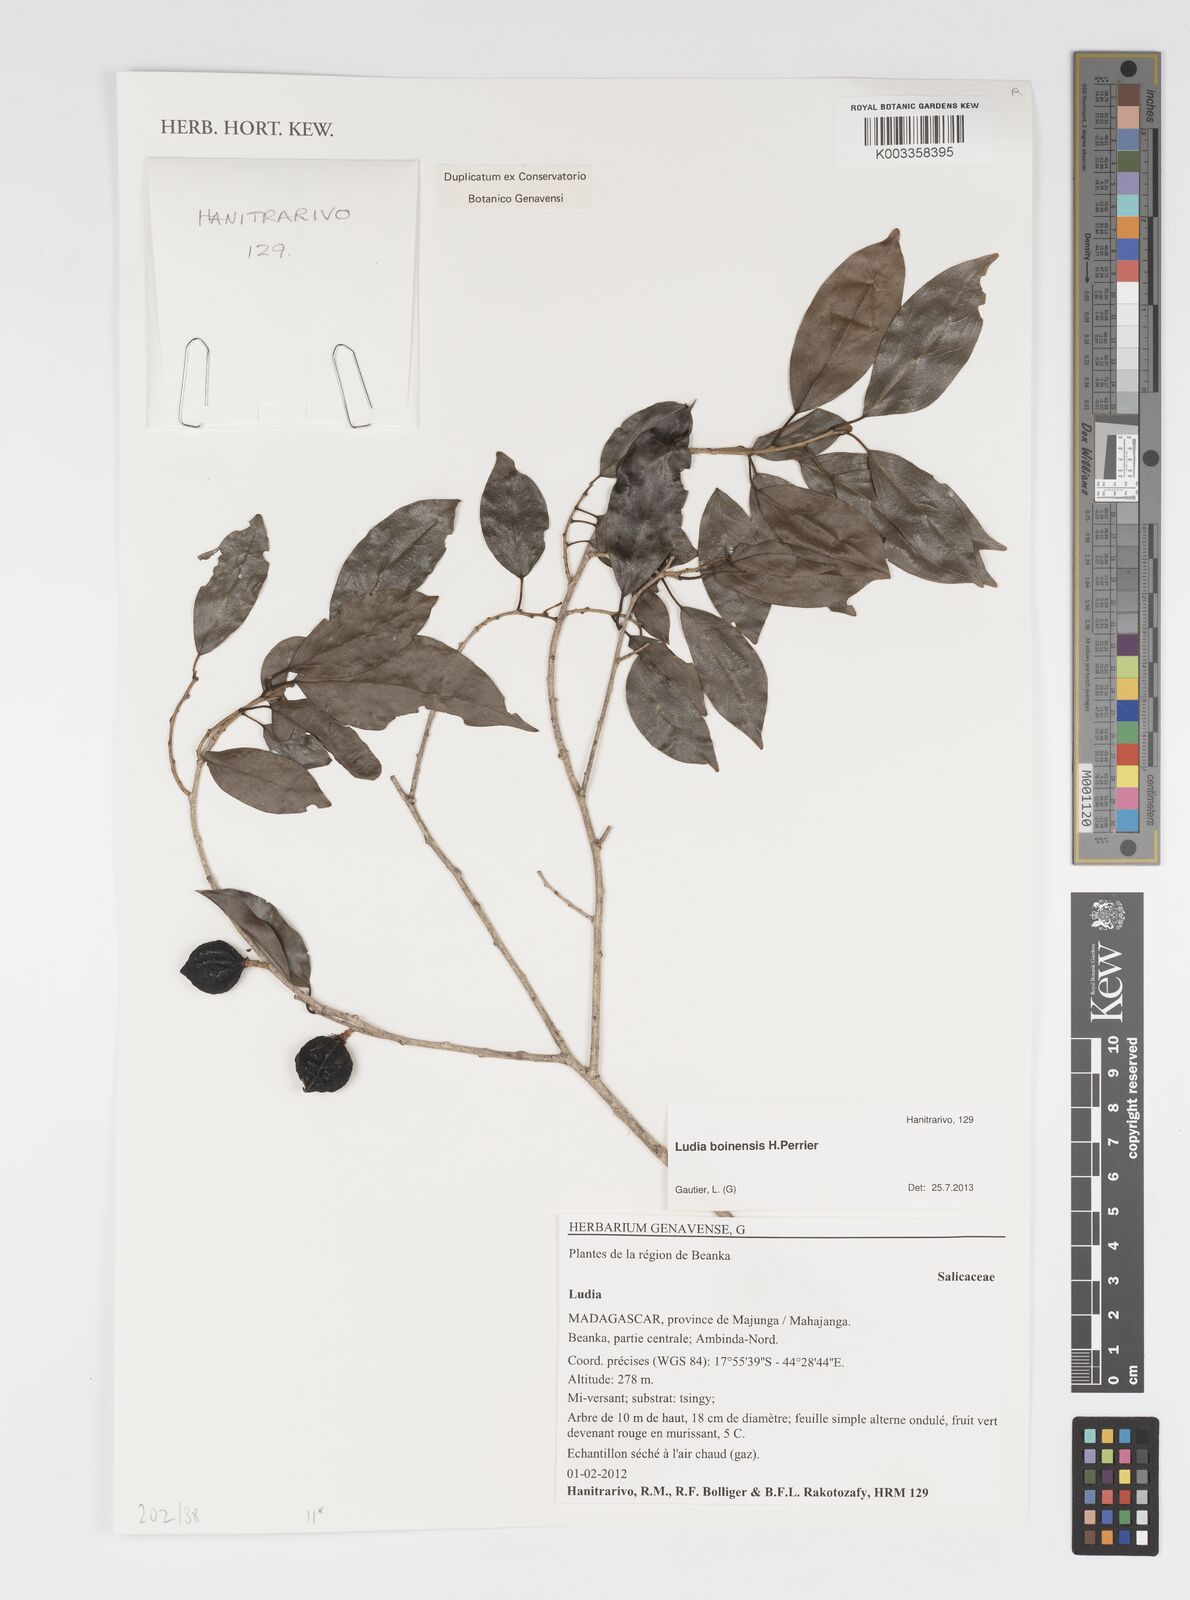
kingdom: Plantae
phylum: Tracheophyta
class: Magnoliopsida
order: Malpighiales
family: Salicaceae
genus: Ludia
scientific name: Ludia boinensis
